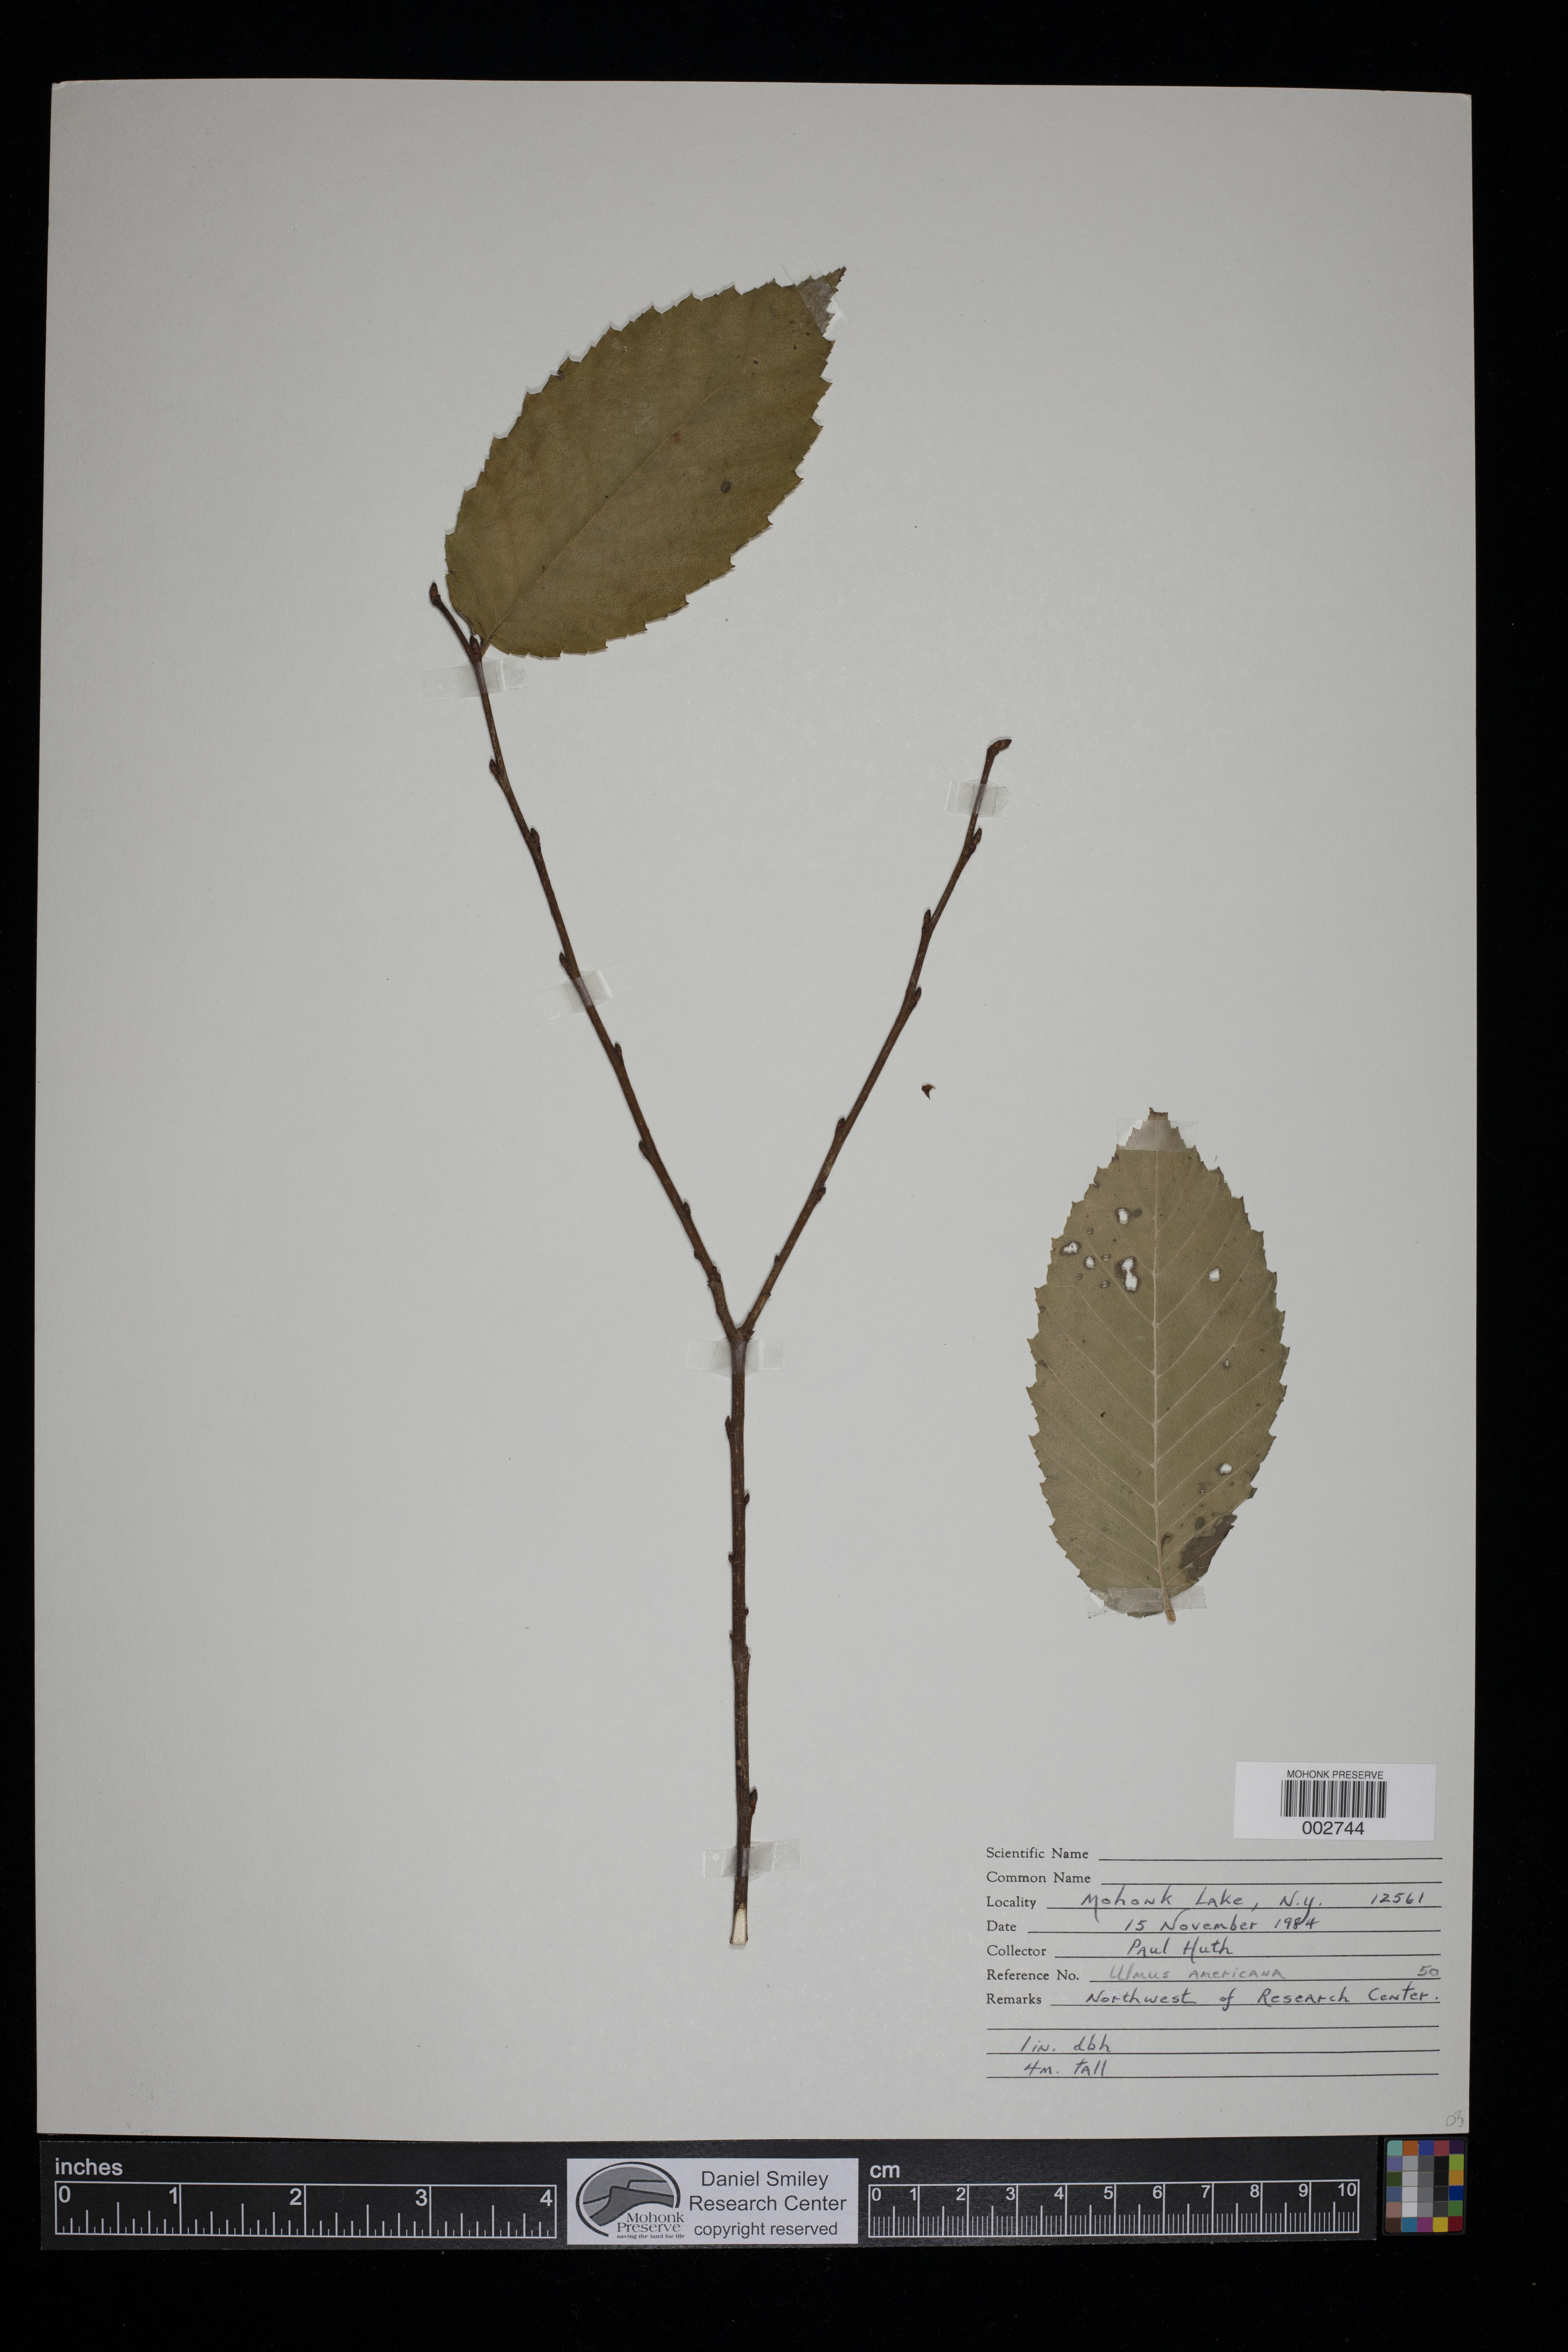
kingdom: Plantae
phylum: Tracheophyta
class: Magnoliopsida
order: Rosales
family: Ulmaceae
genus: Ulmus
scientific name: Ulmus americana
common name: American elm
